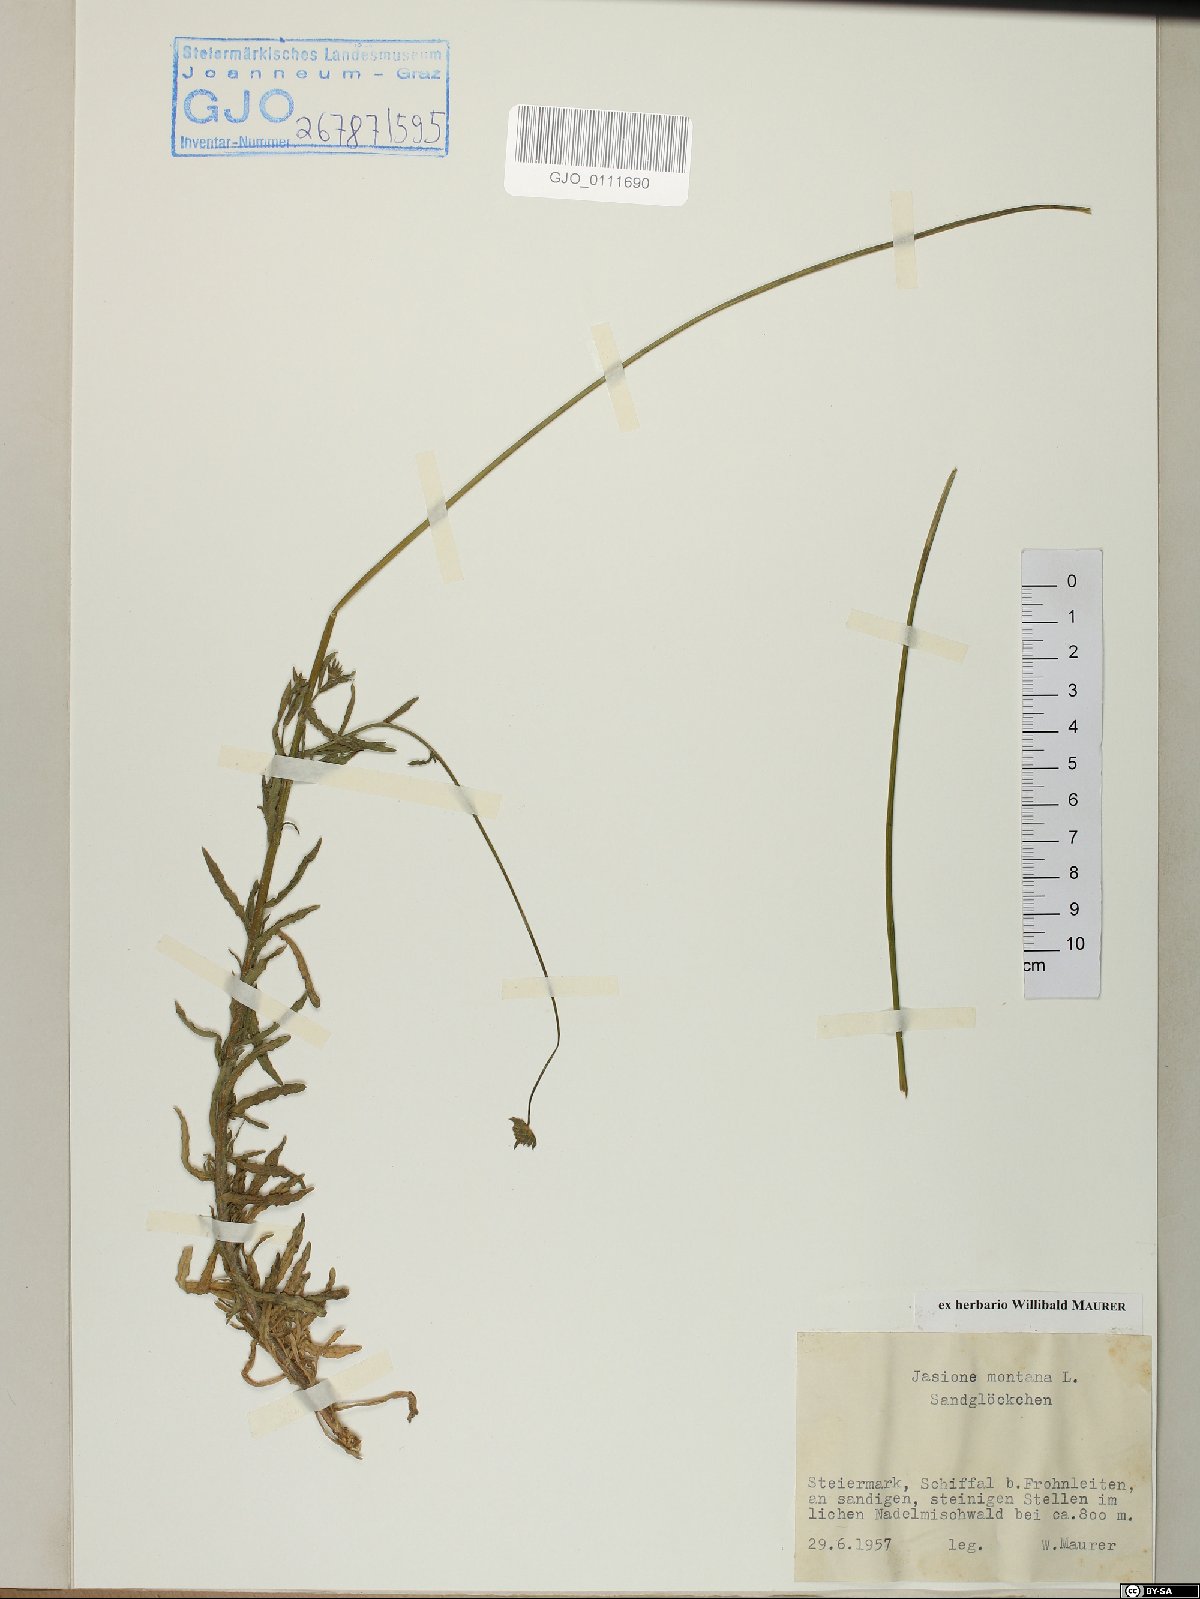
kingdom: Plantae
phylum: Tracheophyta
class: Magnoliopsida
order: Asterales
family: Campanulaceae
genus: Jasione
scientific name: Jasione montana
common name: Sheep's-bit
